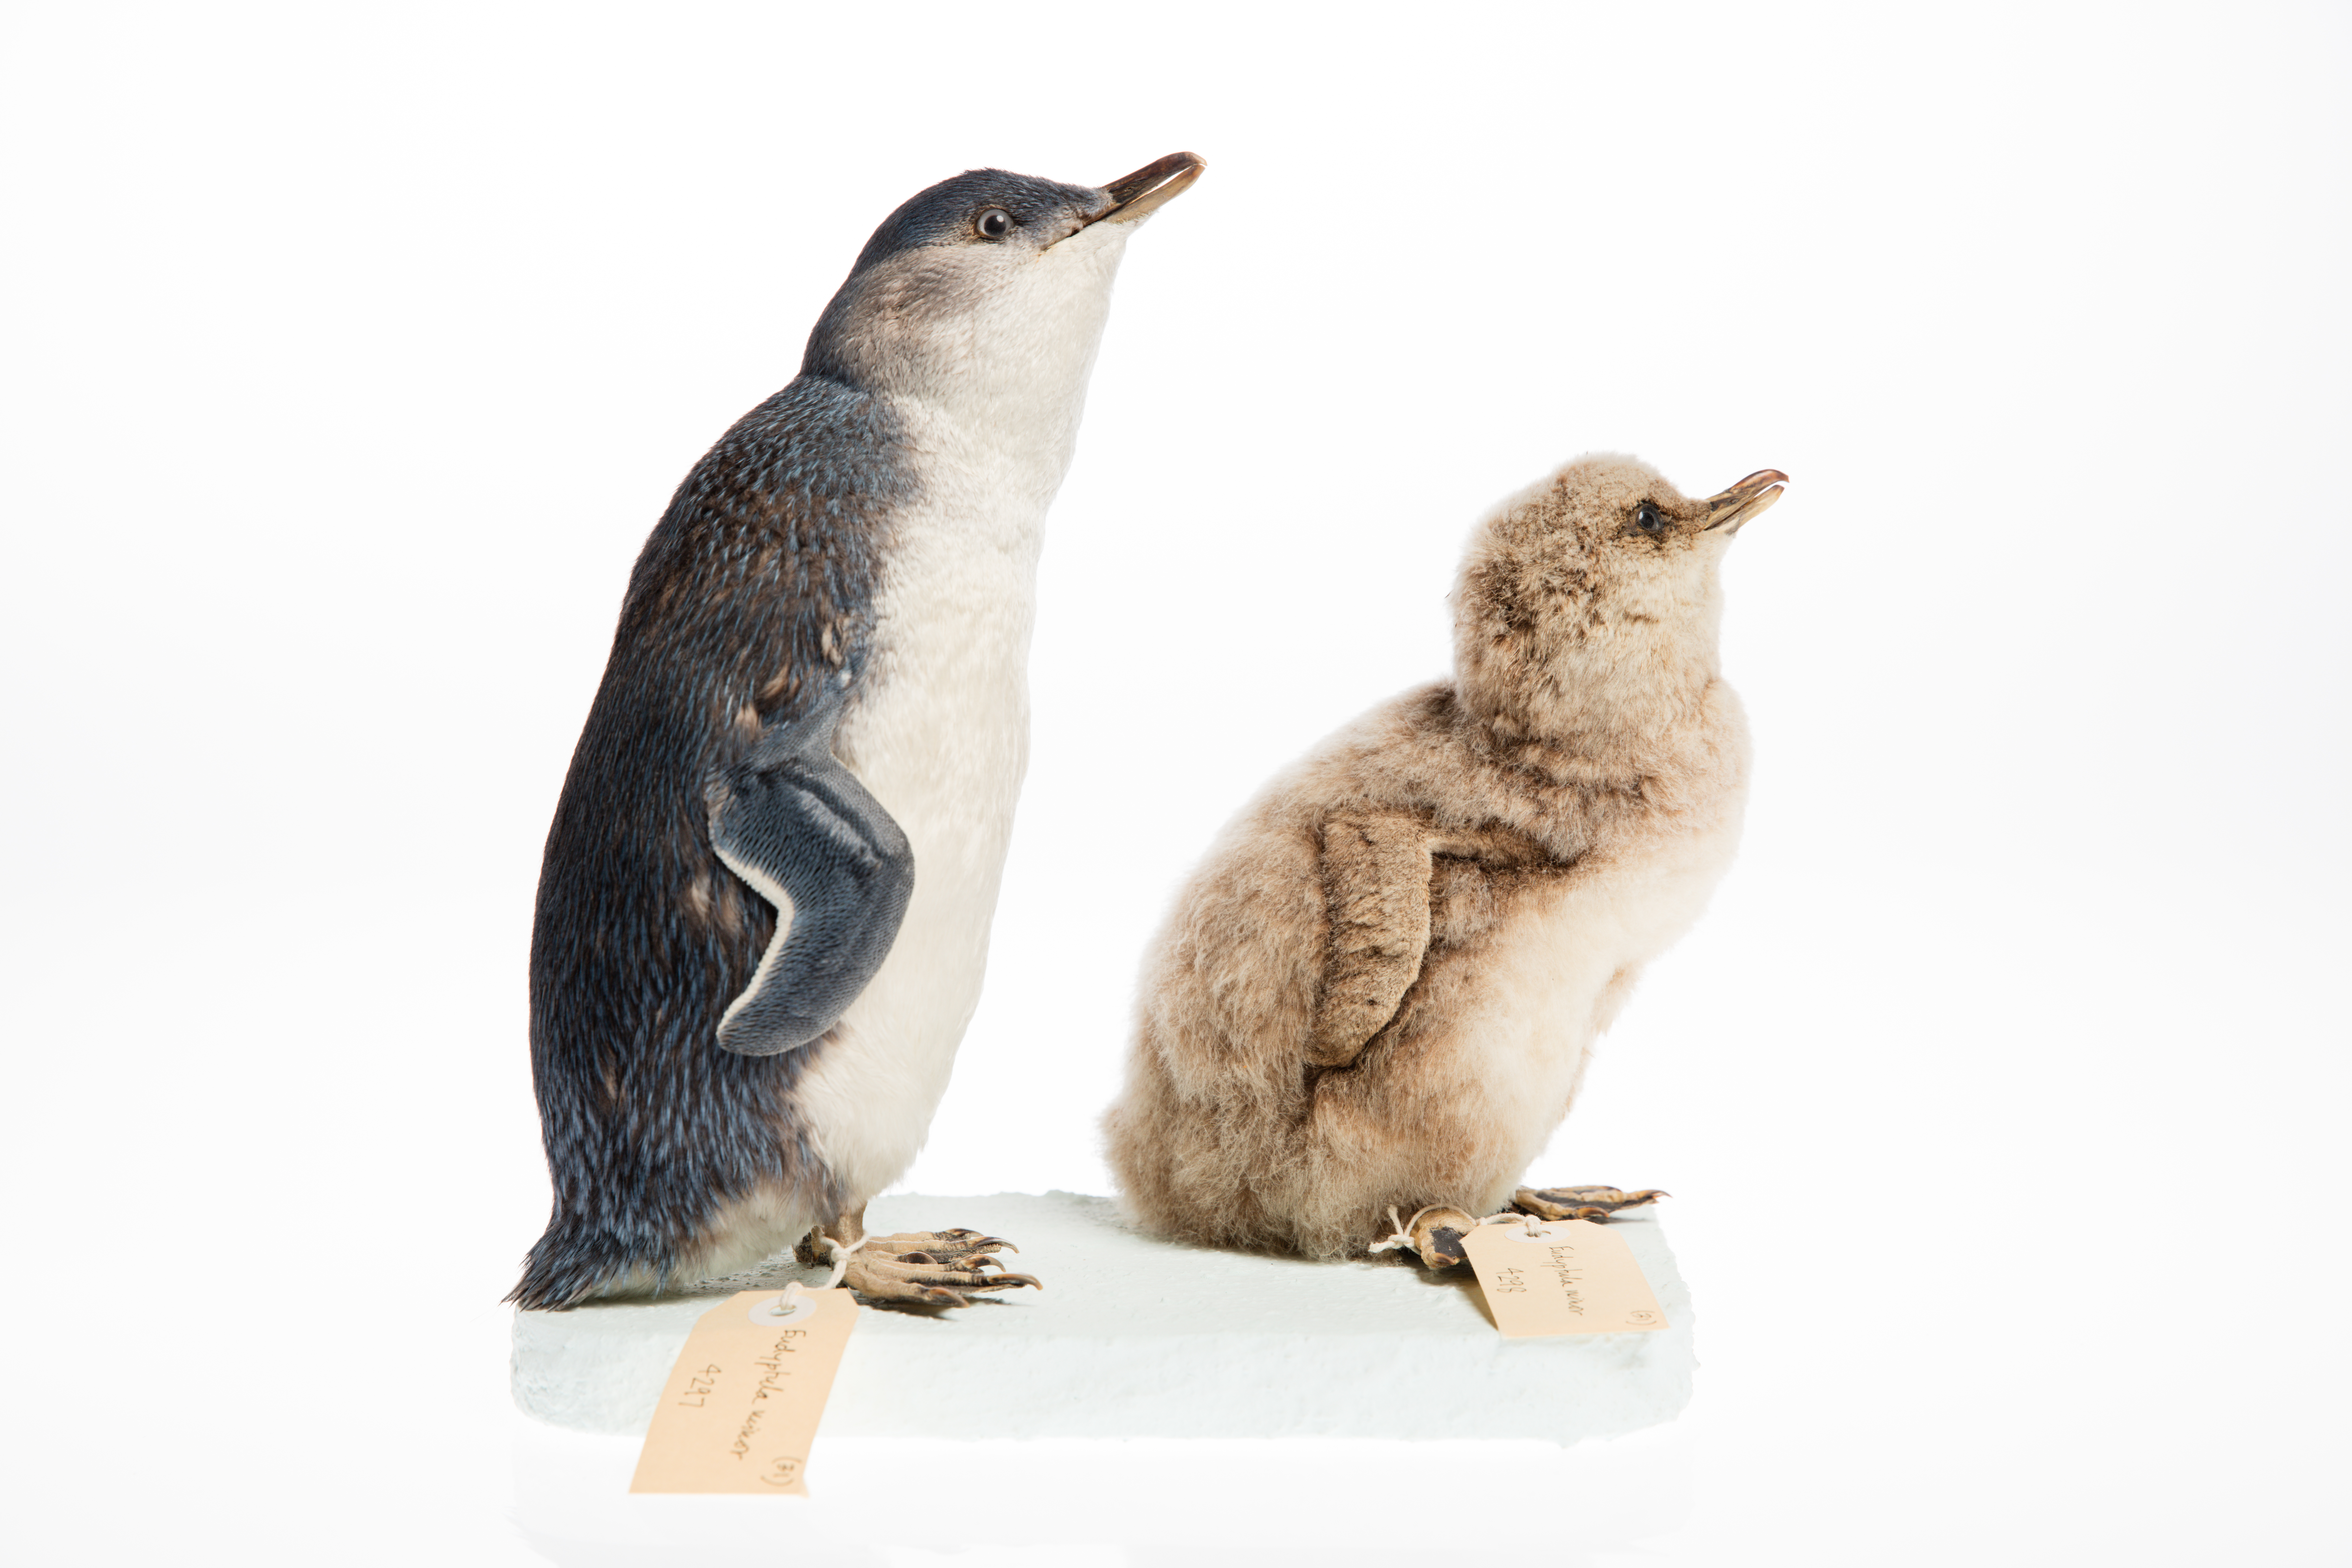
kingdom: Animalia
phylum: Chordata
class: Aves
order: Sphenisciformes
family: Spheniscidae
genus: Eudyptula
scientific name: Eudyptula minor
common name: Little penguin
